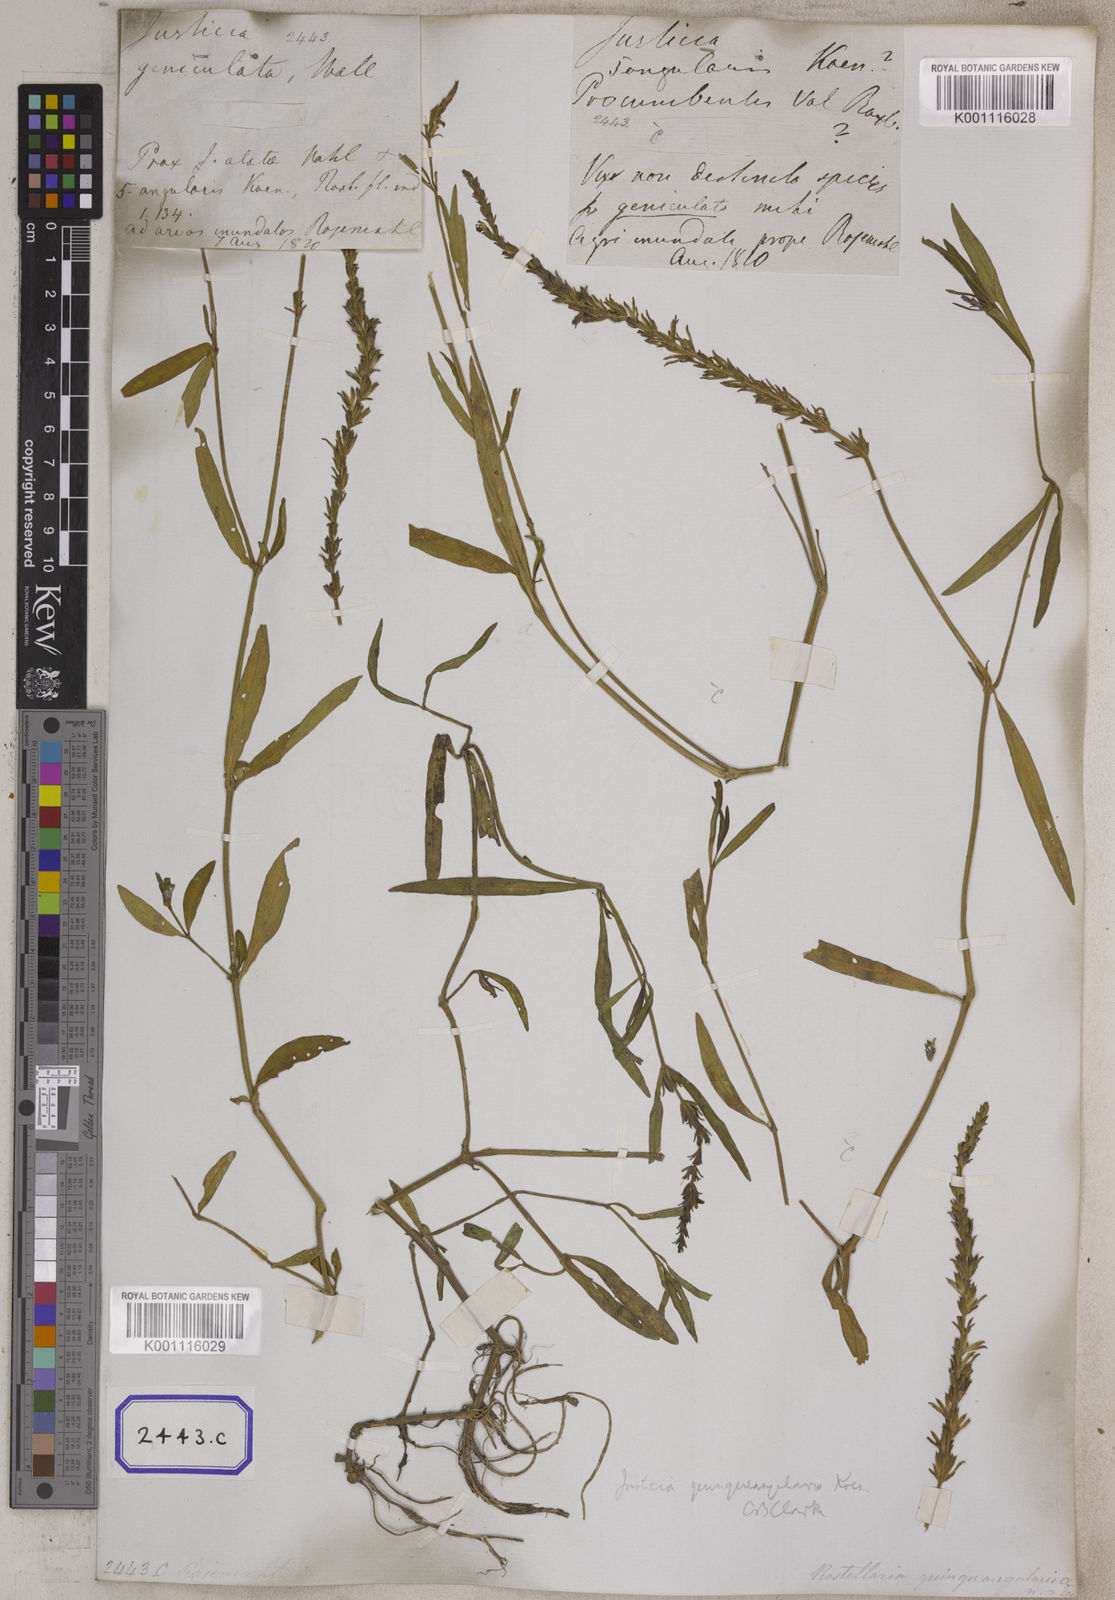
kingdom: Plantae
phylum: Tracheophyta
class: Magnoliopsida
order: Lamiales
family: Acanthaceae
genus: Rostellularia
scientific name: Rostellularia diffusa
